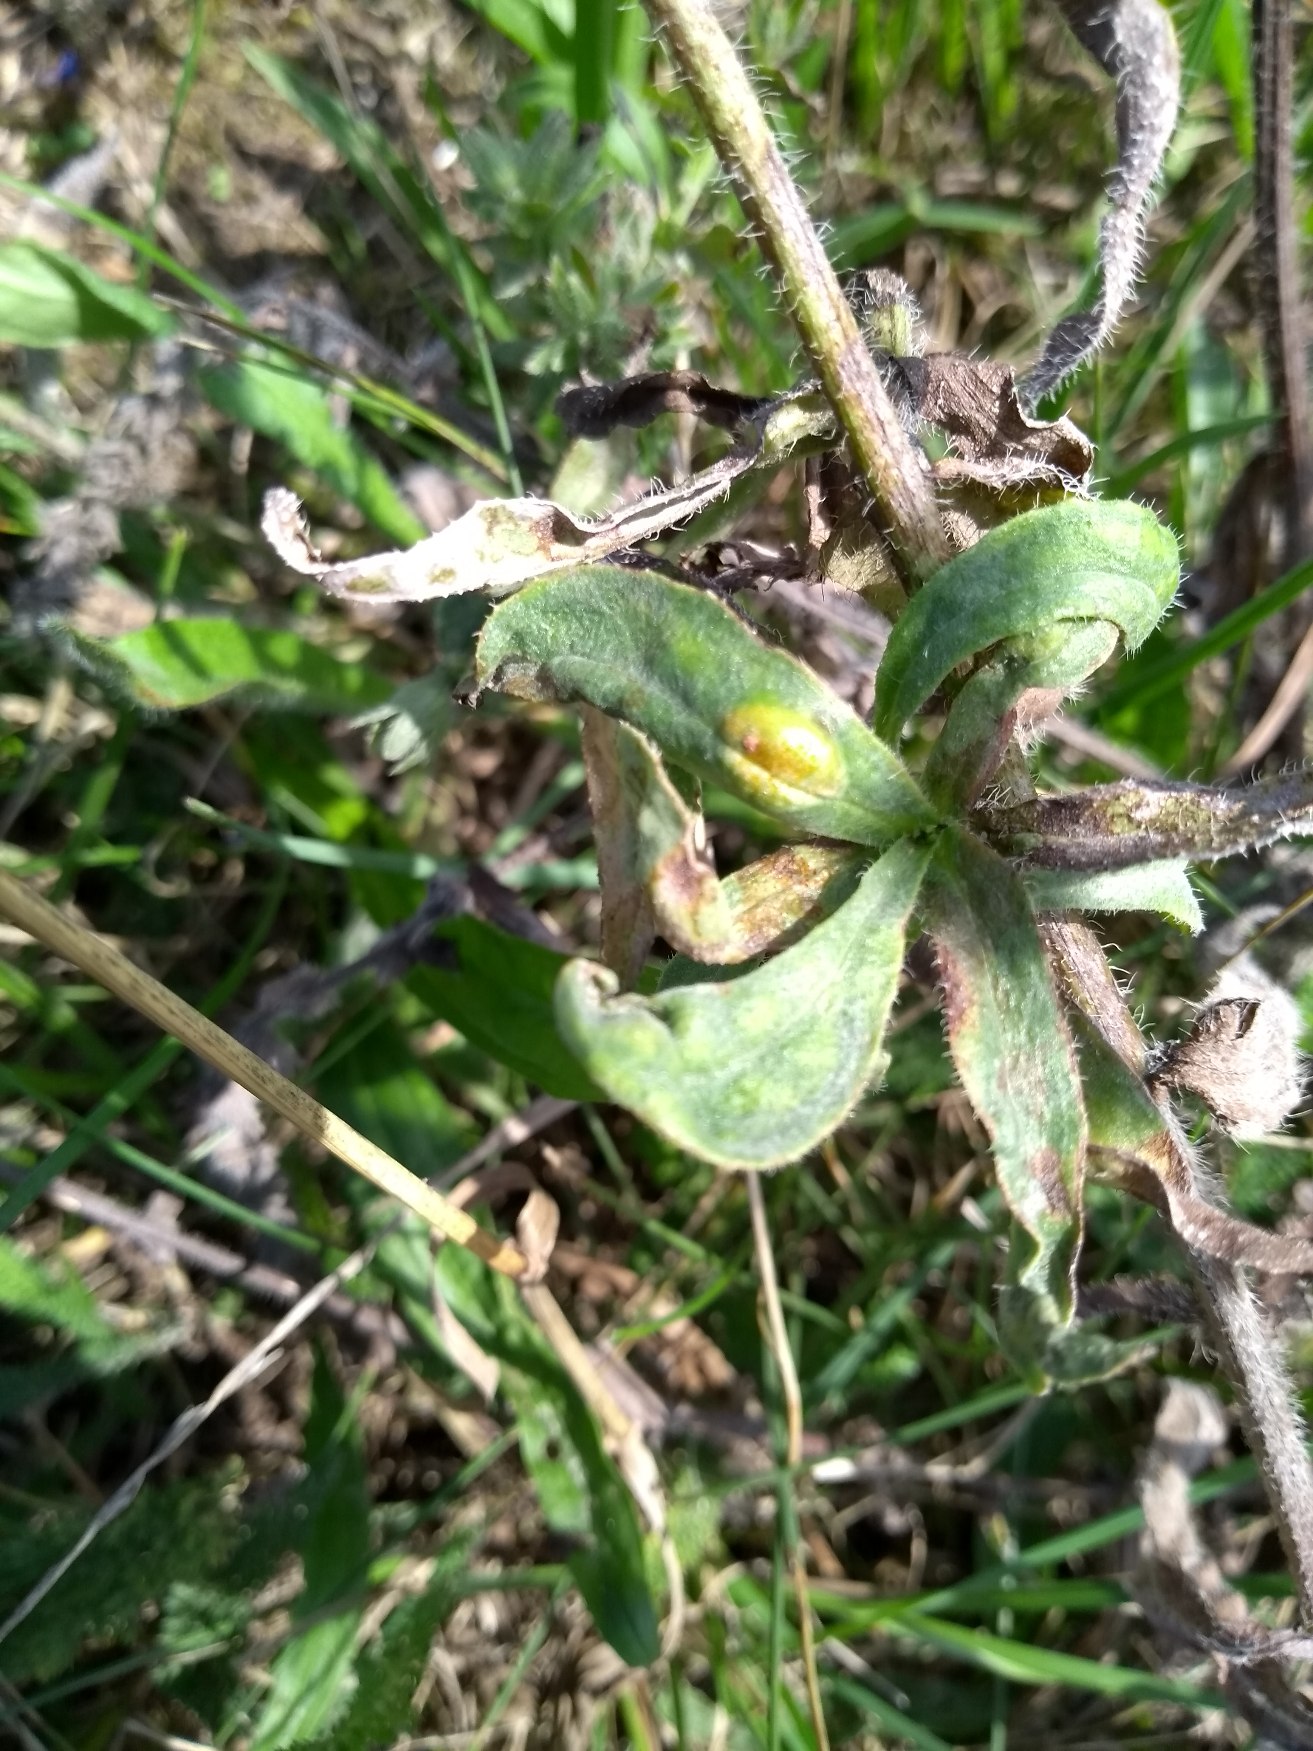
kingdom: Plantae
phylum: Tracheophyta
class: Magnoliopsida
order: Boraginales
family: Boraginaceae
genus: Anchusa
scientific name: Anchusa officinalis
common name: Læge-oksetunge
